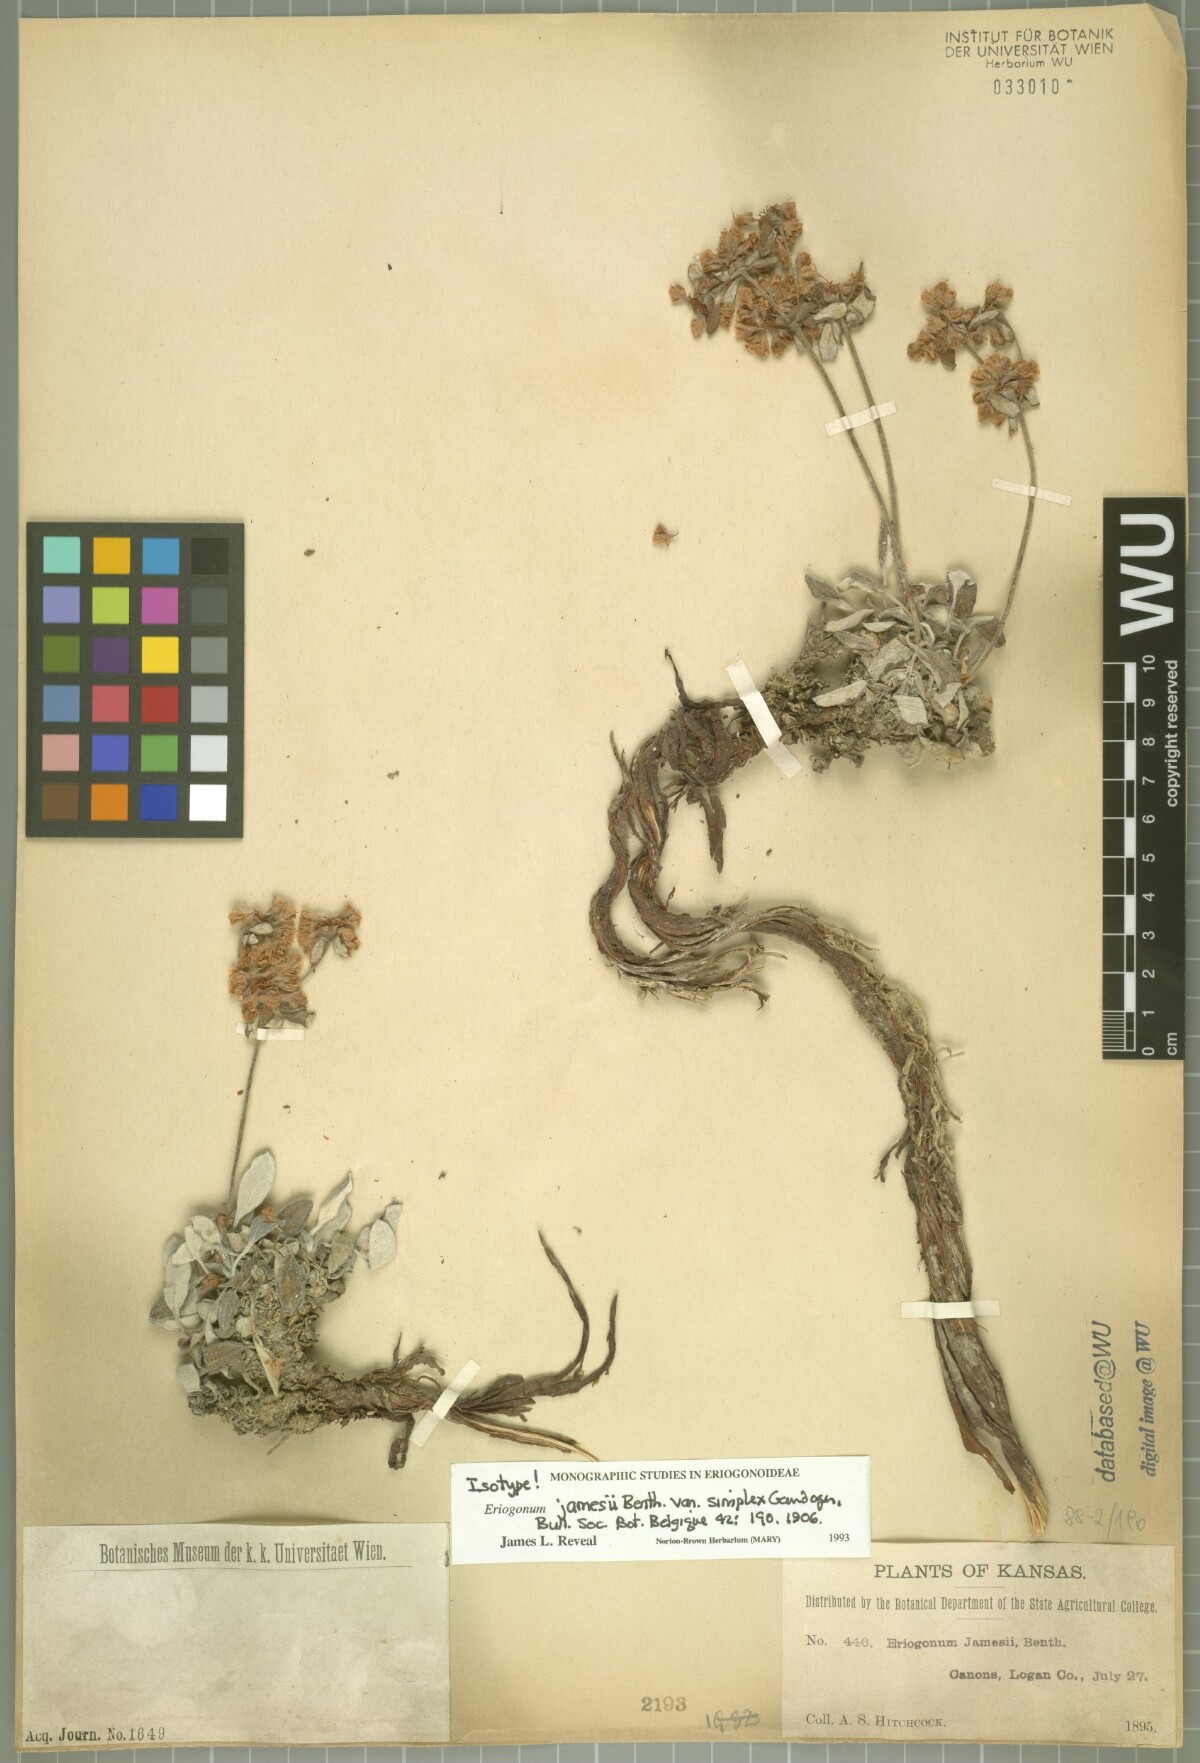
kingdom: Plantae
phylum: Tracheophyta
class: Magnoliopsida
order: Caryophyllales
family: Polygonaceae
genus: Eriogonum
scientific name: Eriogonum jamesii
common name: Antelope-sage
